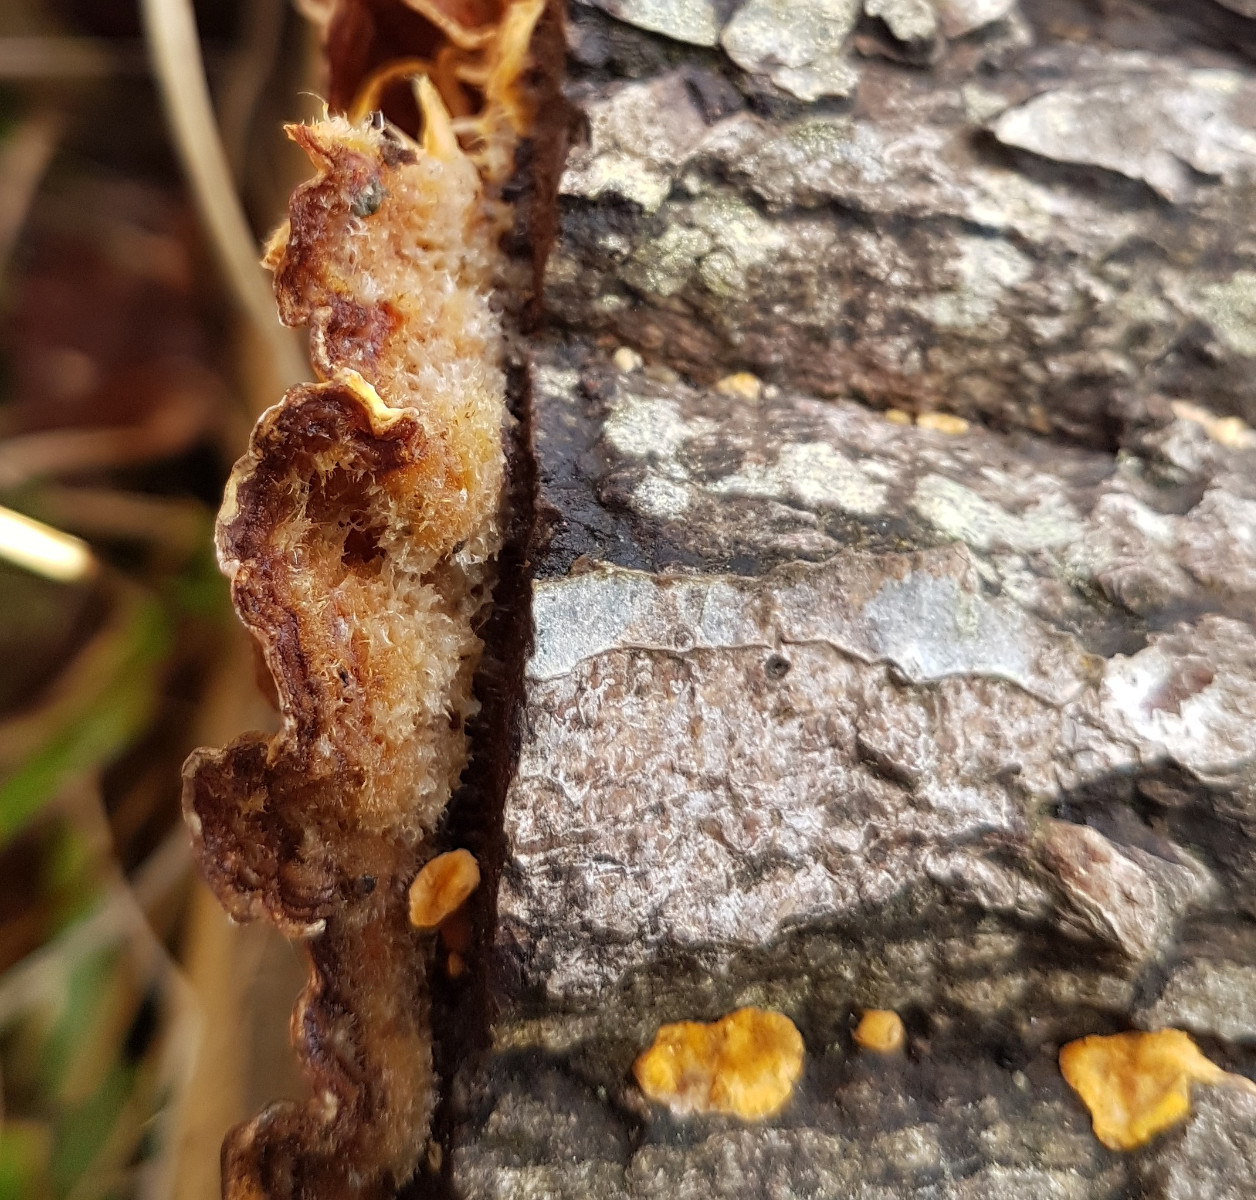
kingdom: Fungi
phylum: Basidiomycota
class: Agaricomycetes
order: Russulales
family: Stereaceae
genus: Stereum
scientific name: Stereum hirsutum
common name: håret lædersvamp
